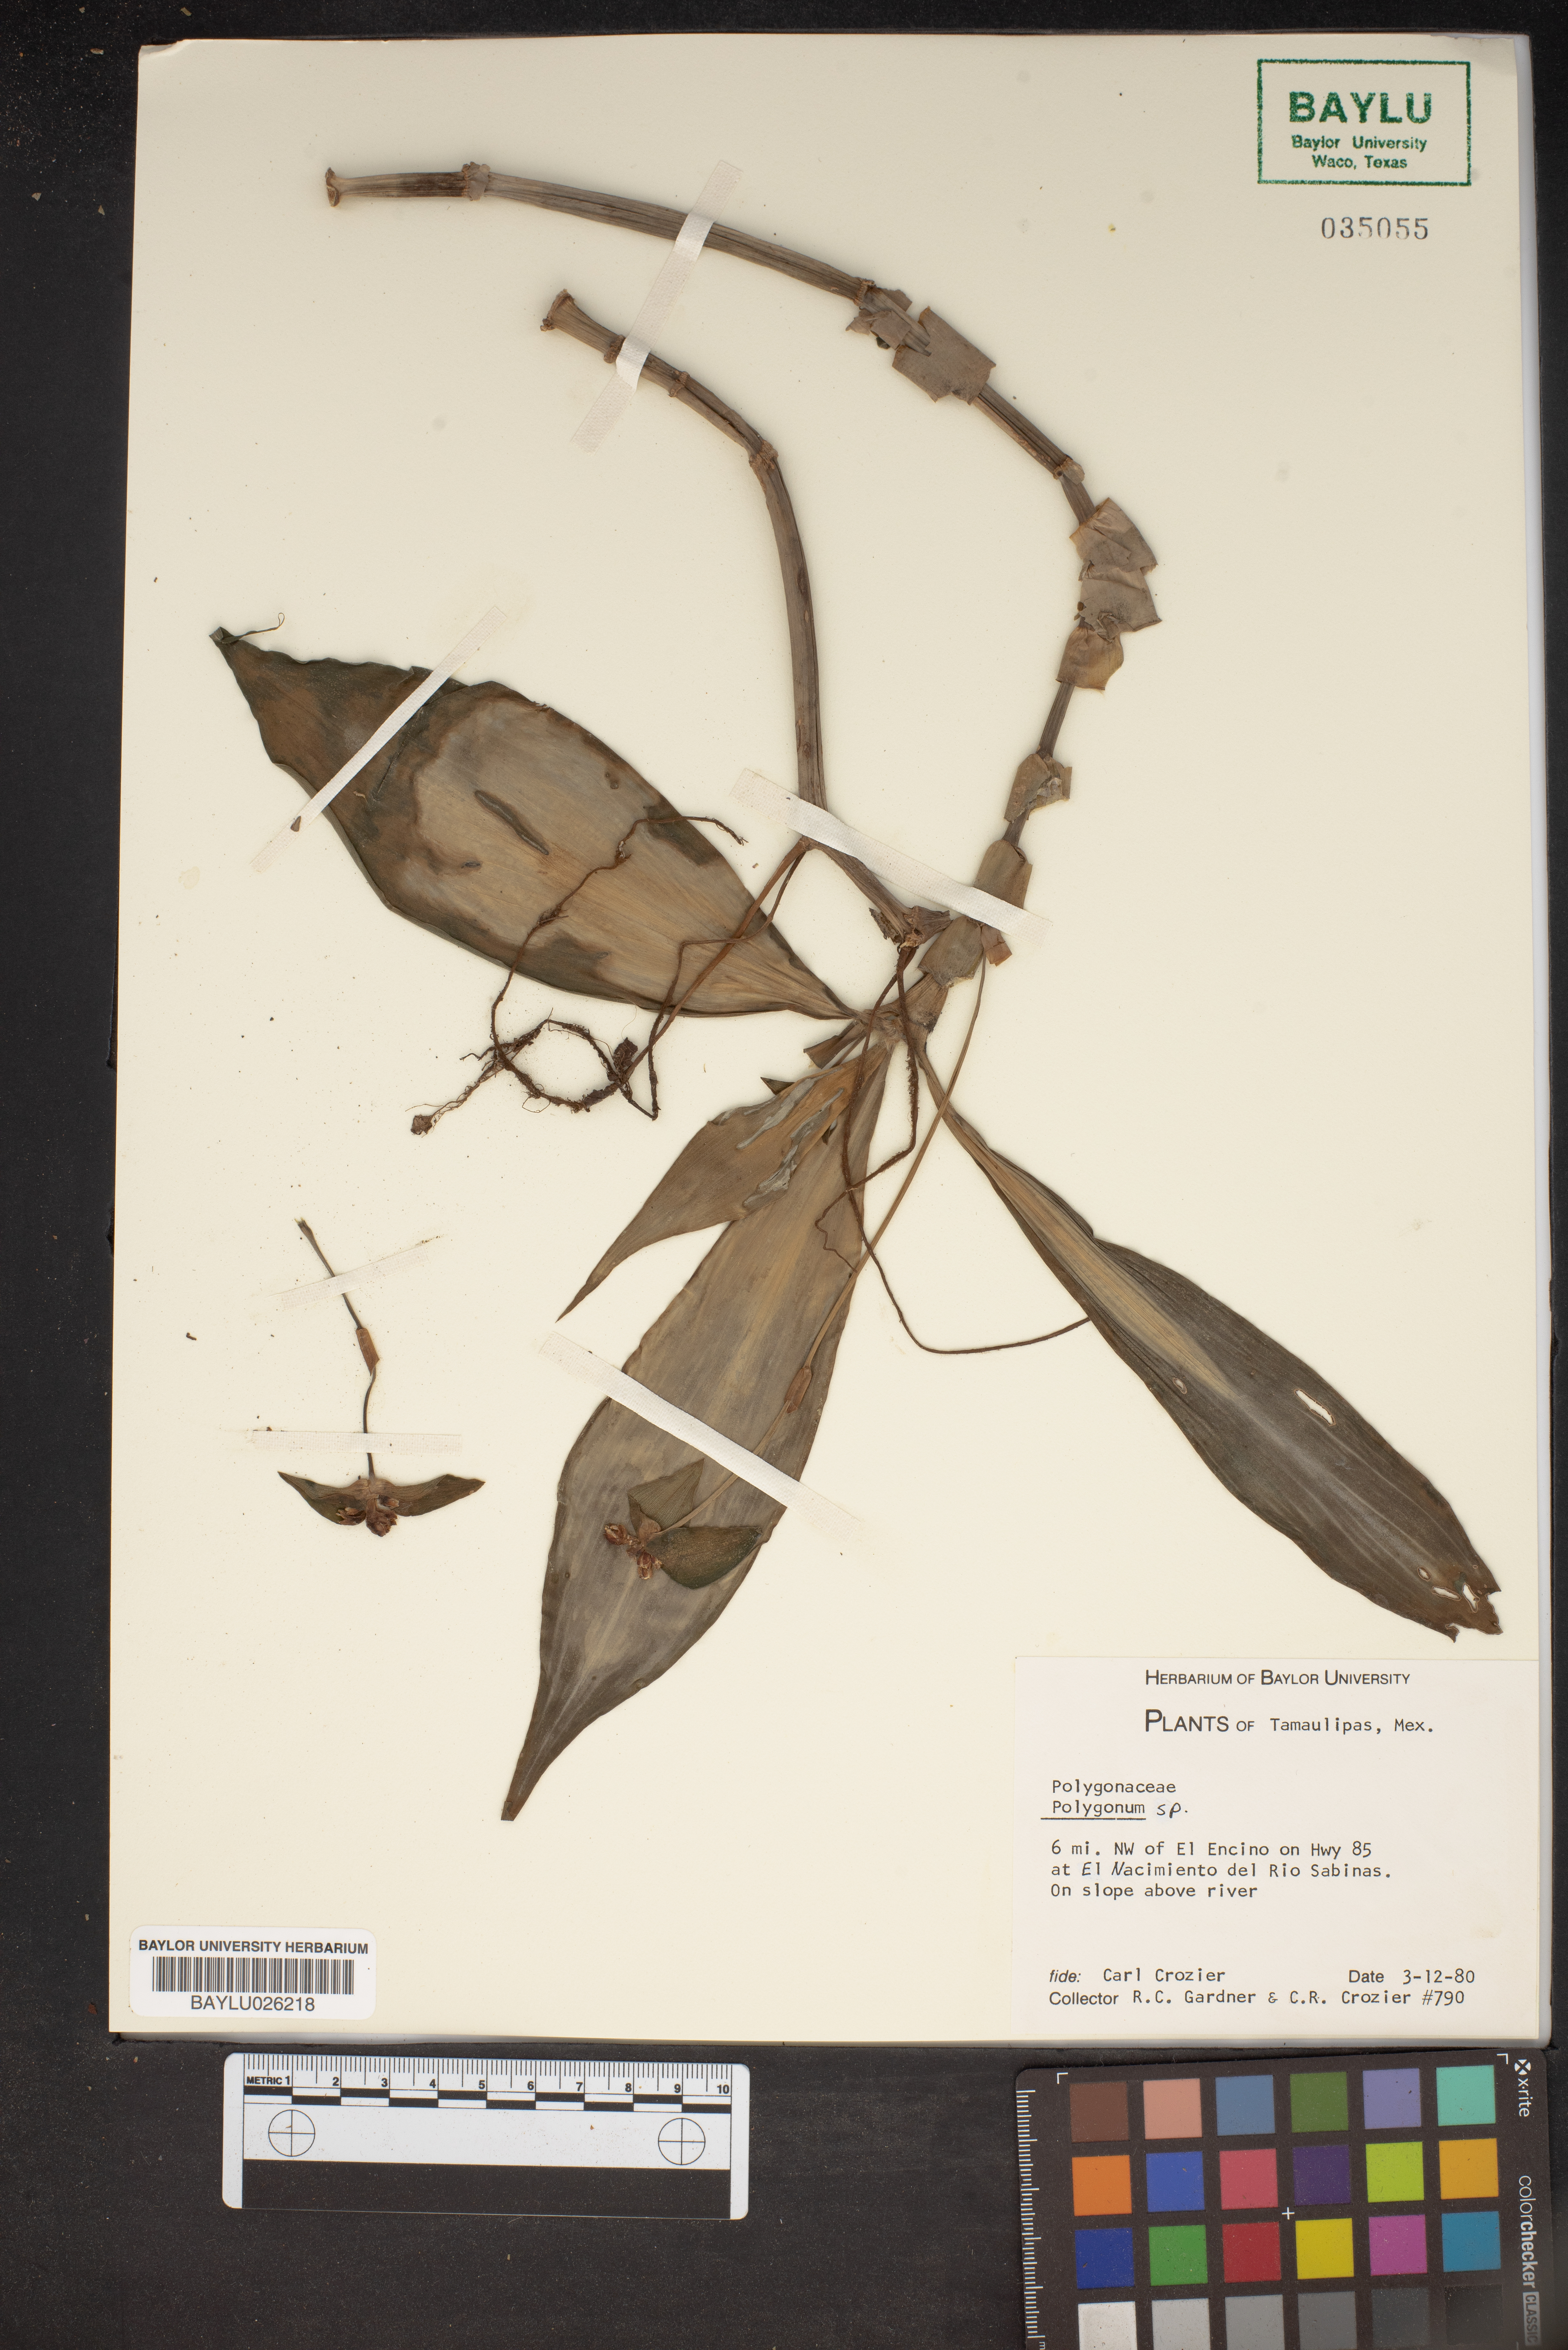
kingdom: Plantae
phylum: Tracheophyta
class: Magnoliopsida
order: Caryophyllales
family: Polygonaceae
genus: Polygonum
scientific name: Polygonum
